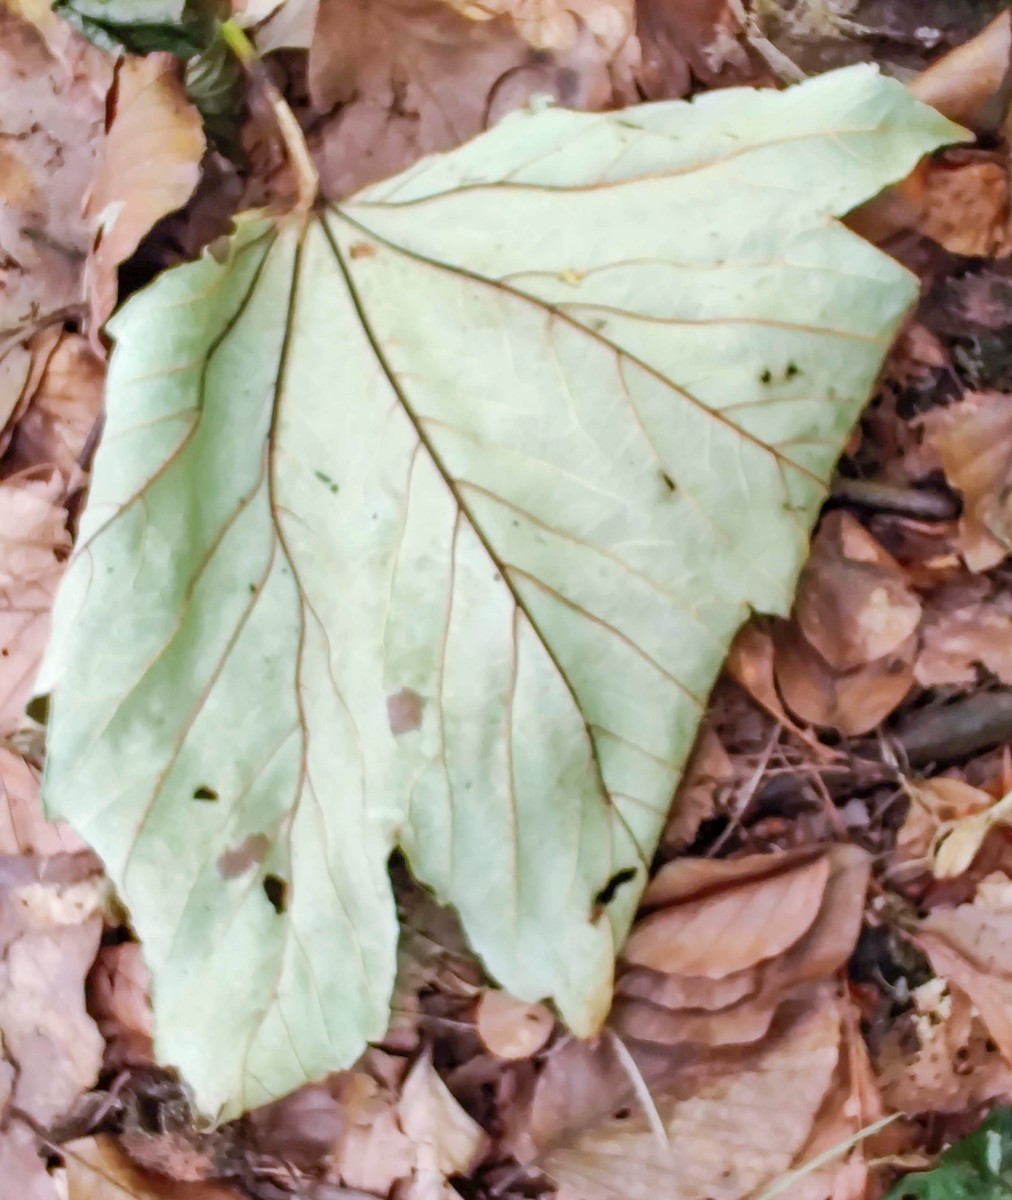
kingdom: Fungi
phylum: Ascomycota
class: Sordariomycetes
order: Diaporthales
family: Gnomoniaceae
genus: Pleuroceras
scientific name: Pleuroceras pseudoplatani
